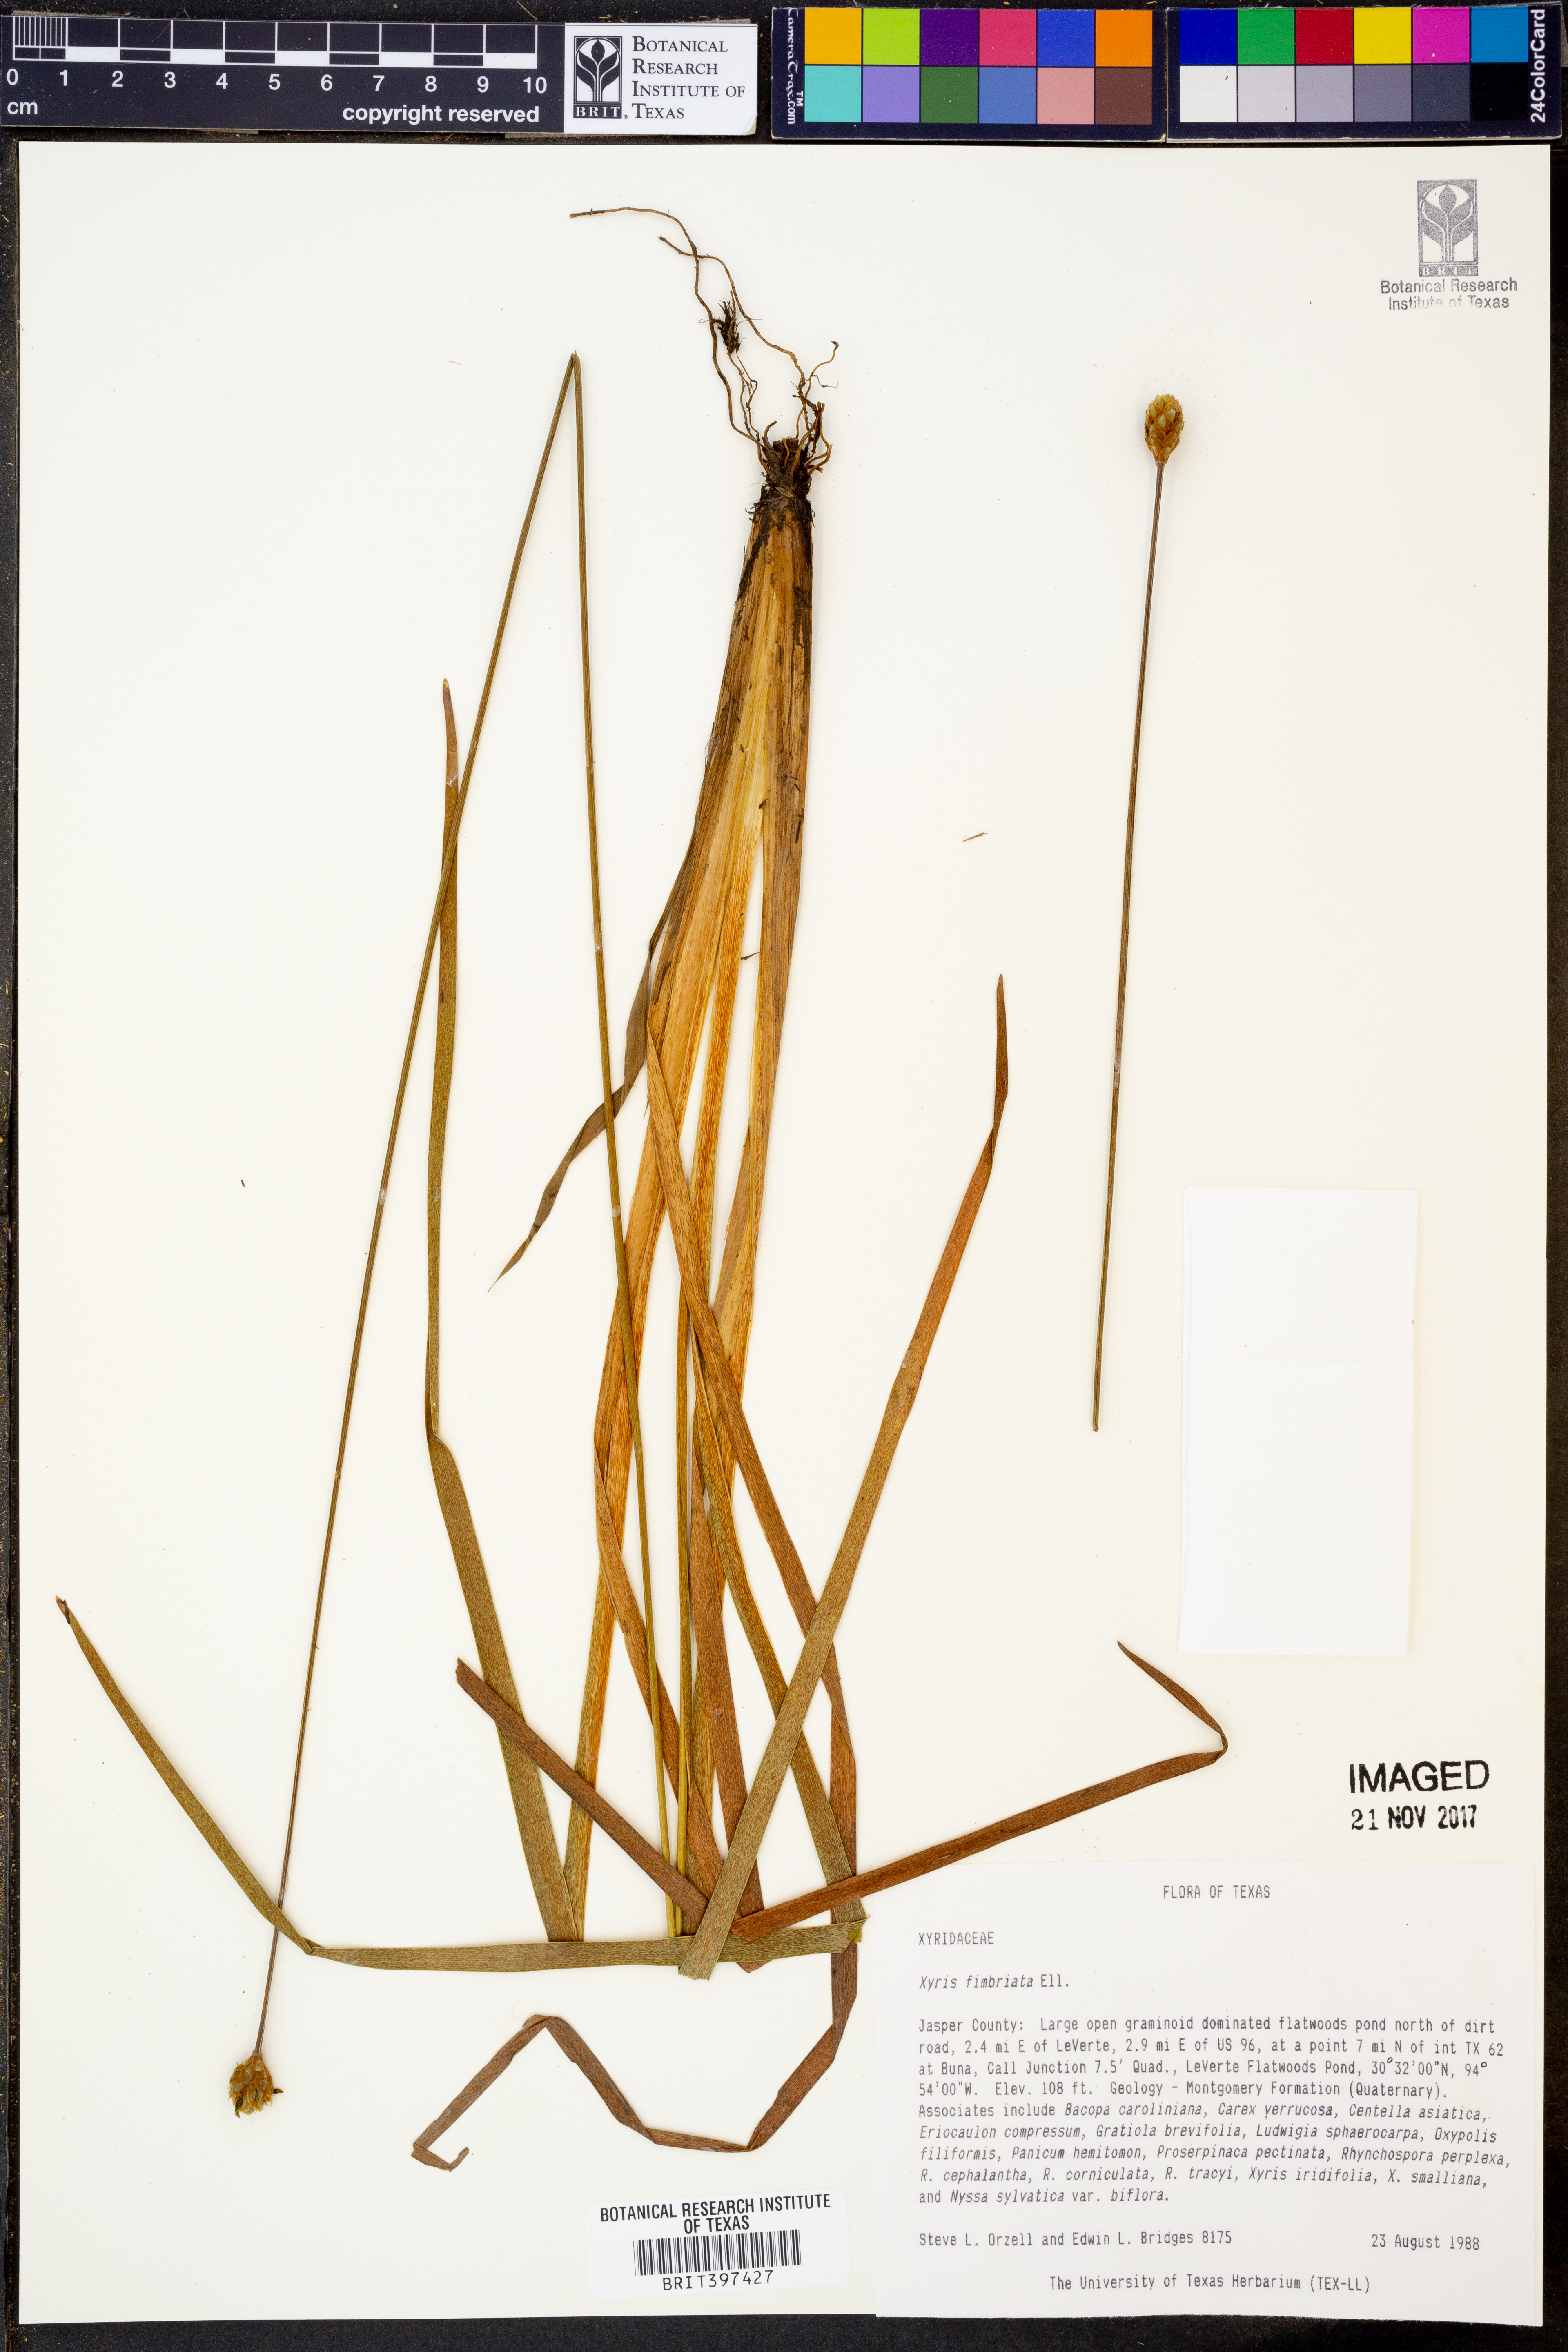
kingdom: Plantae
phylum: Tracheophyta
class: Liliopsida
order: Poales
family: Xyridaceae
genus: Xyris
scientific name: Xyris fimbriata
